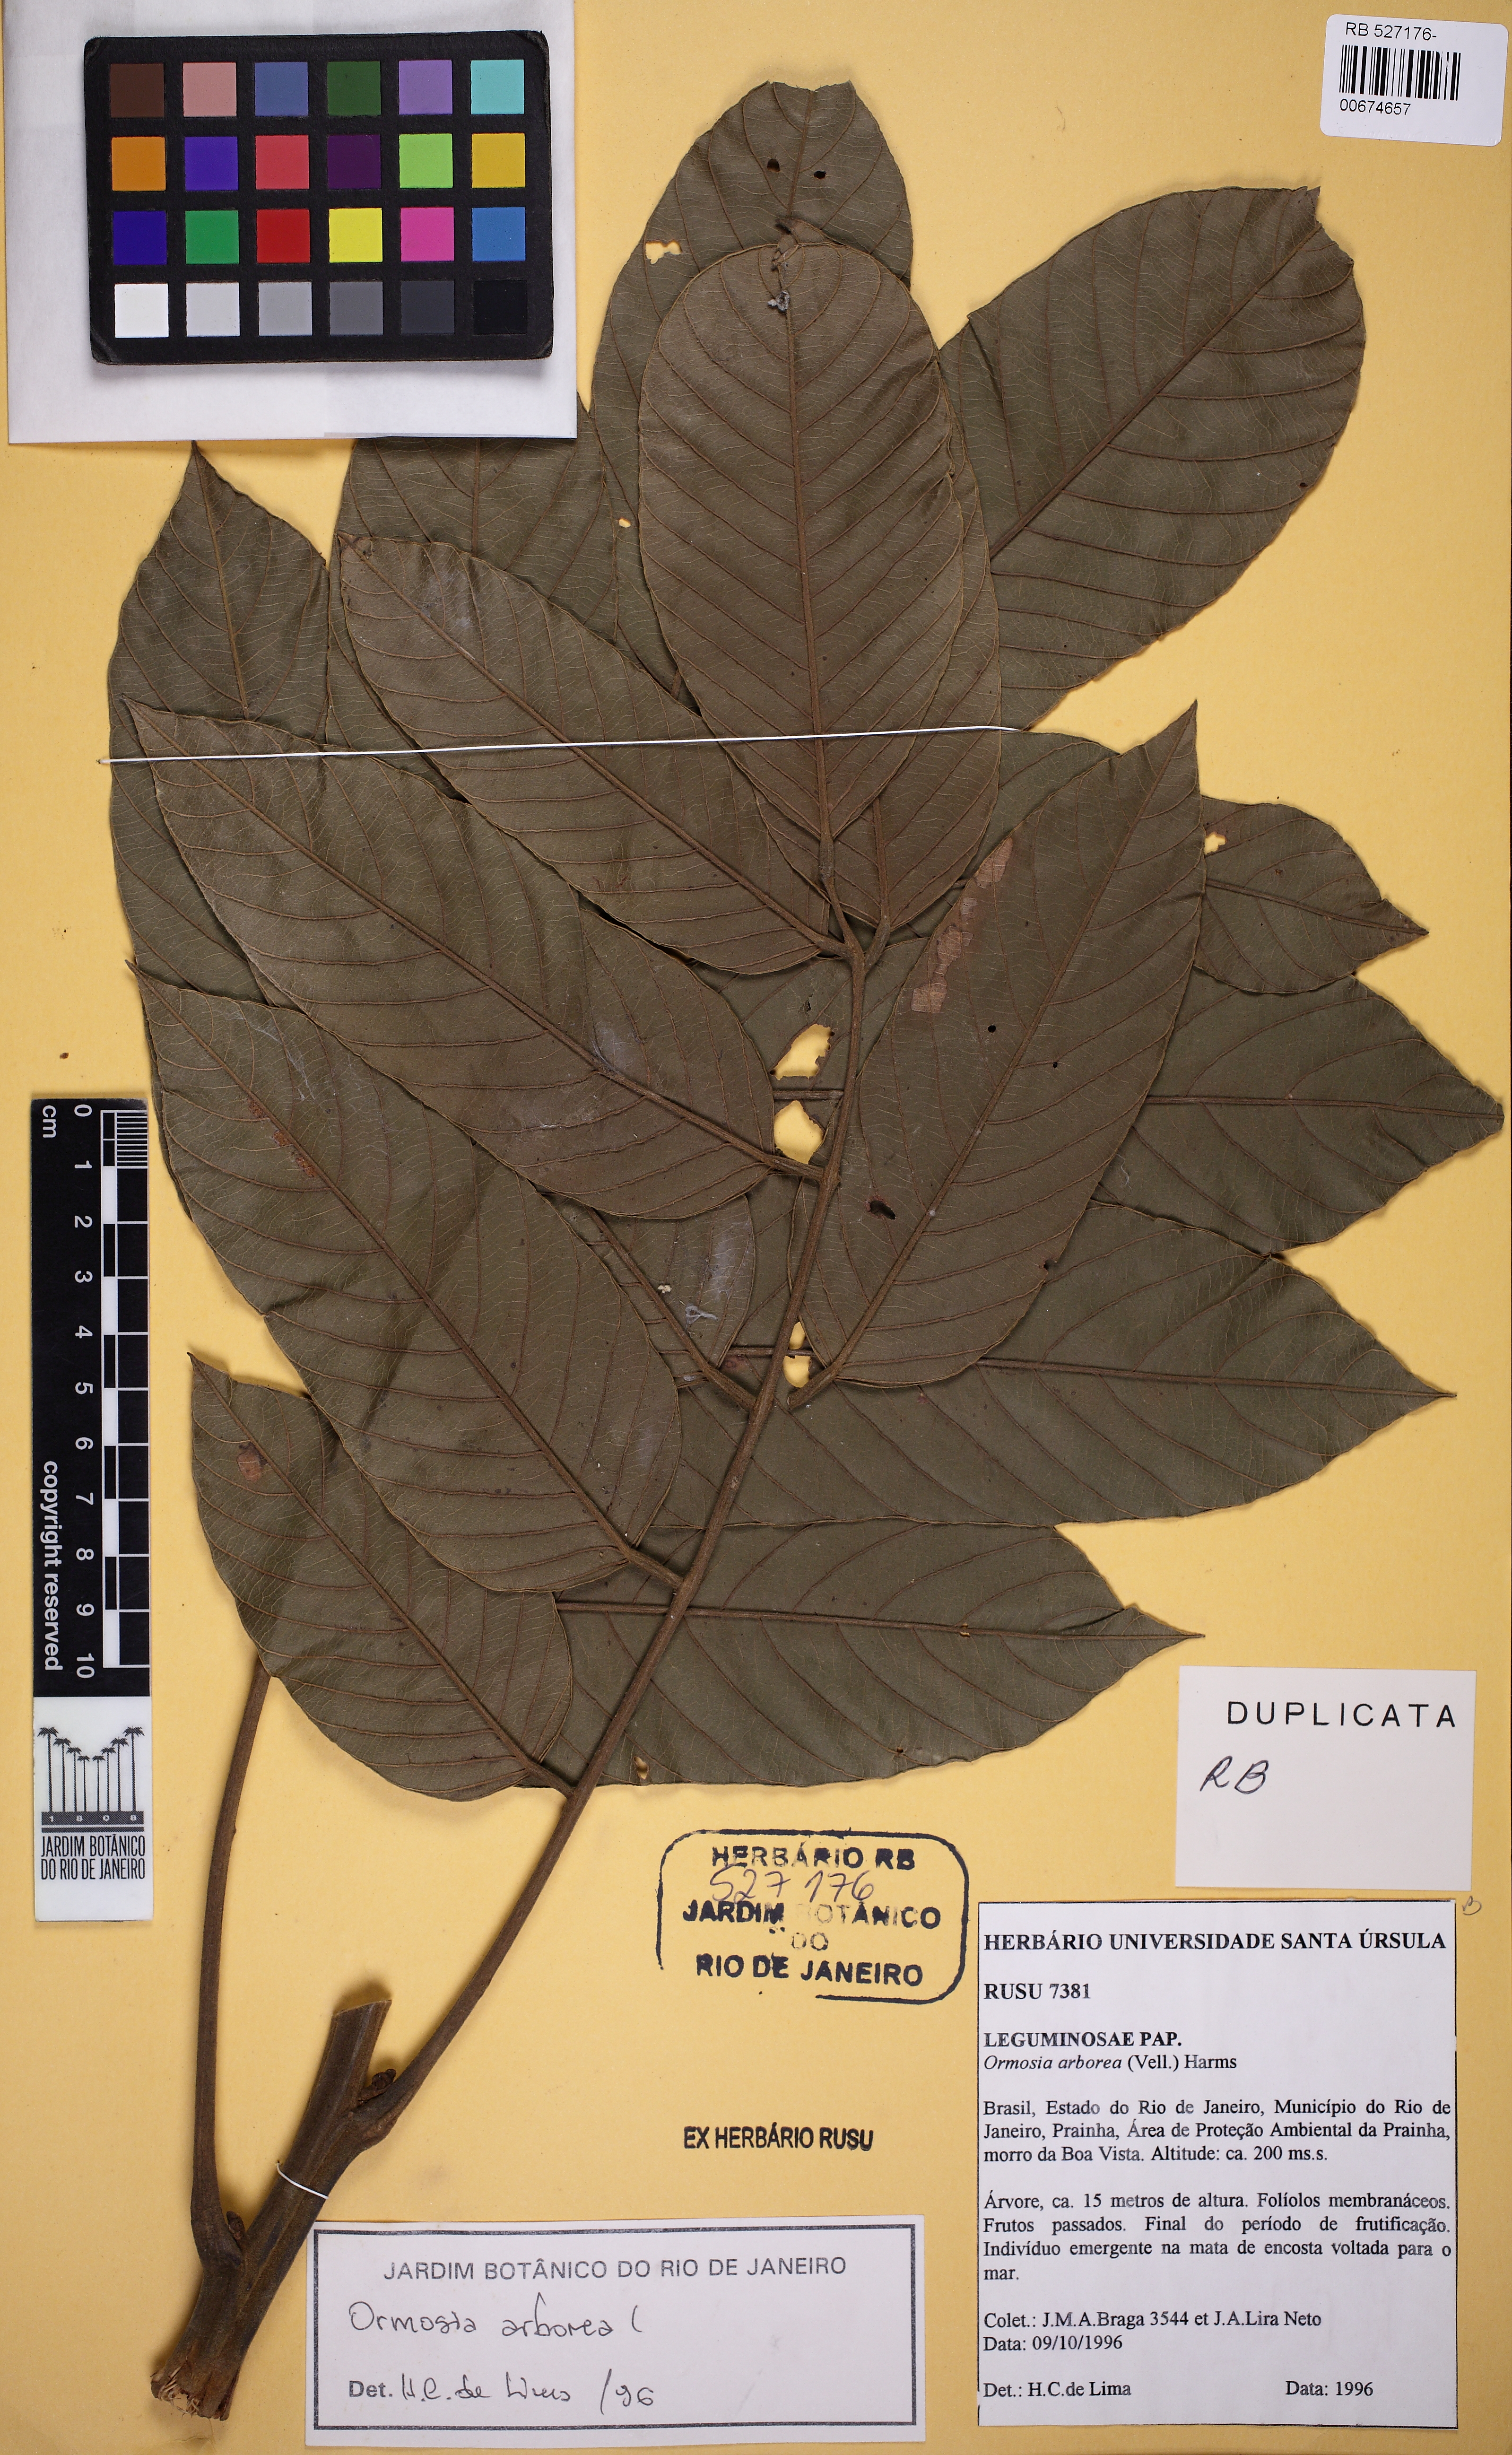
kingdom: Plantae
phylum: Tracheophyta
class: Magnoliopsida
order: Fabales
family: Fabaceae
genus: Ormosia
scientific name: Ormosia arborea
